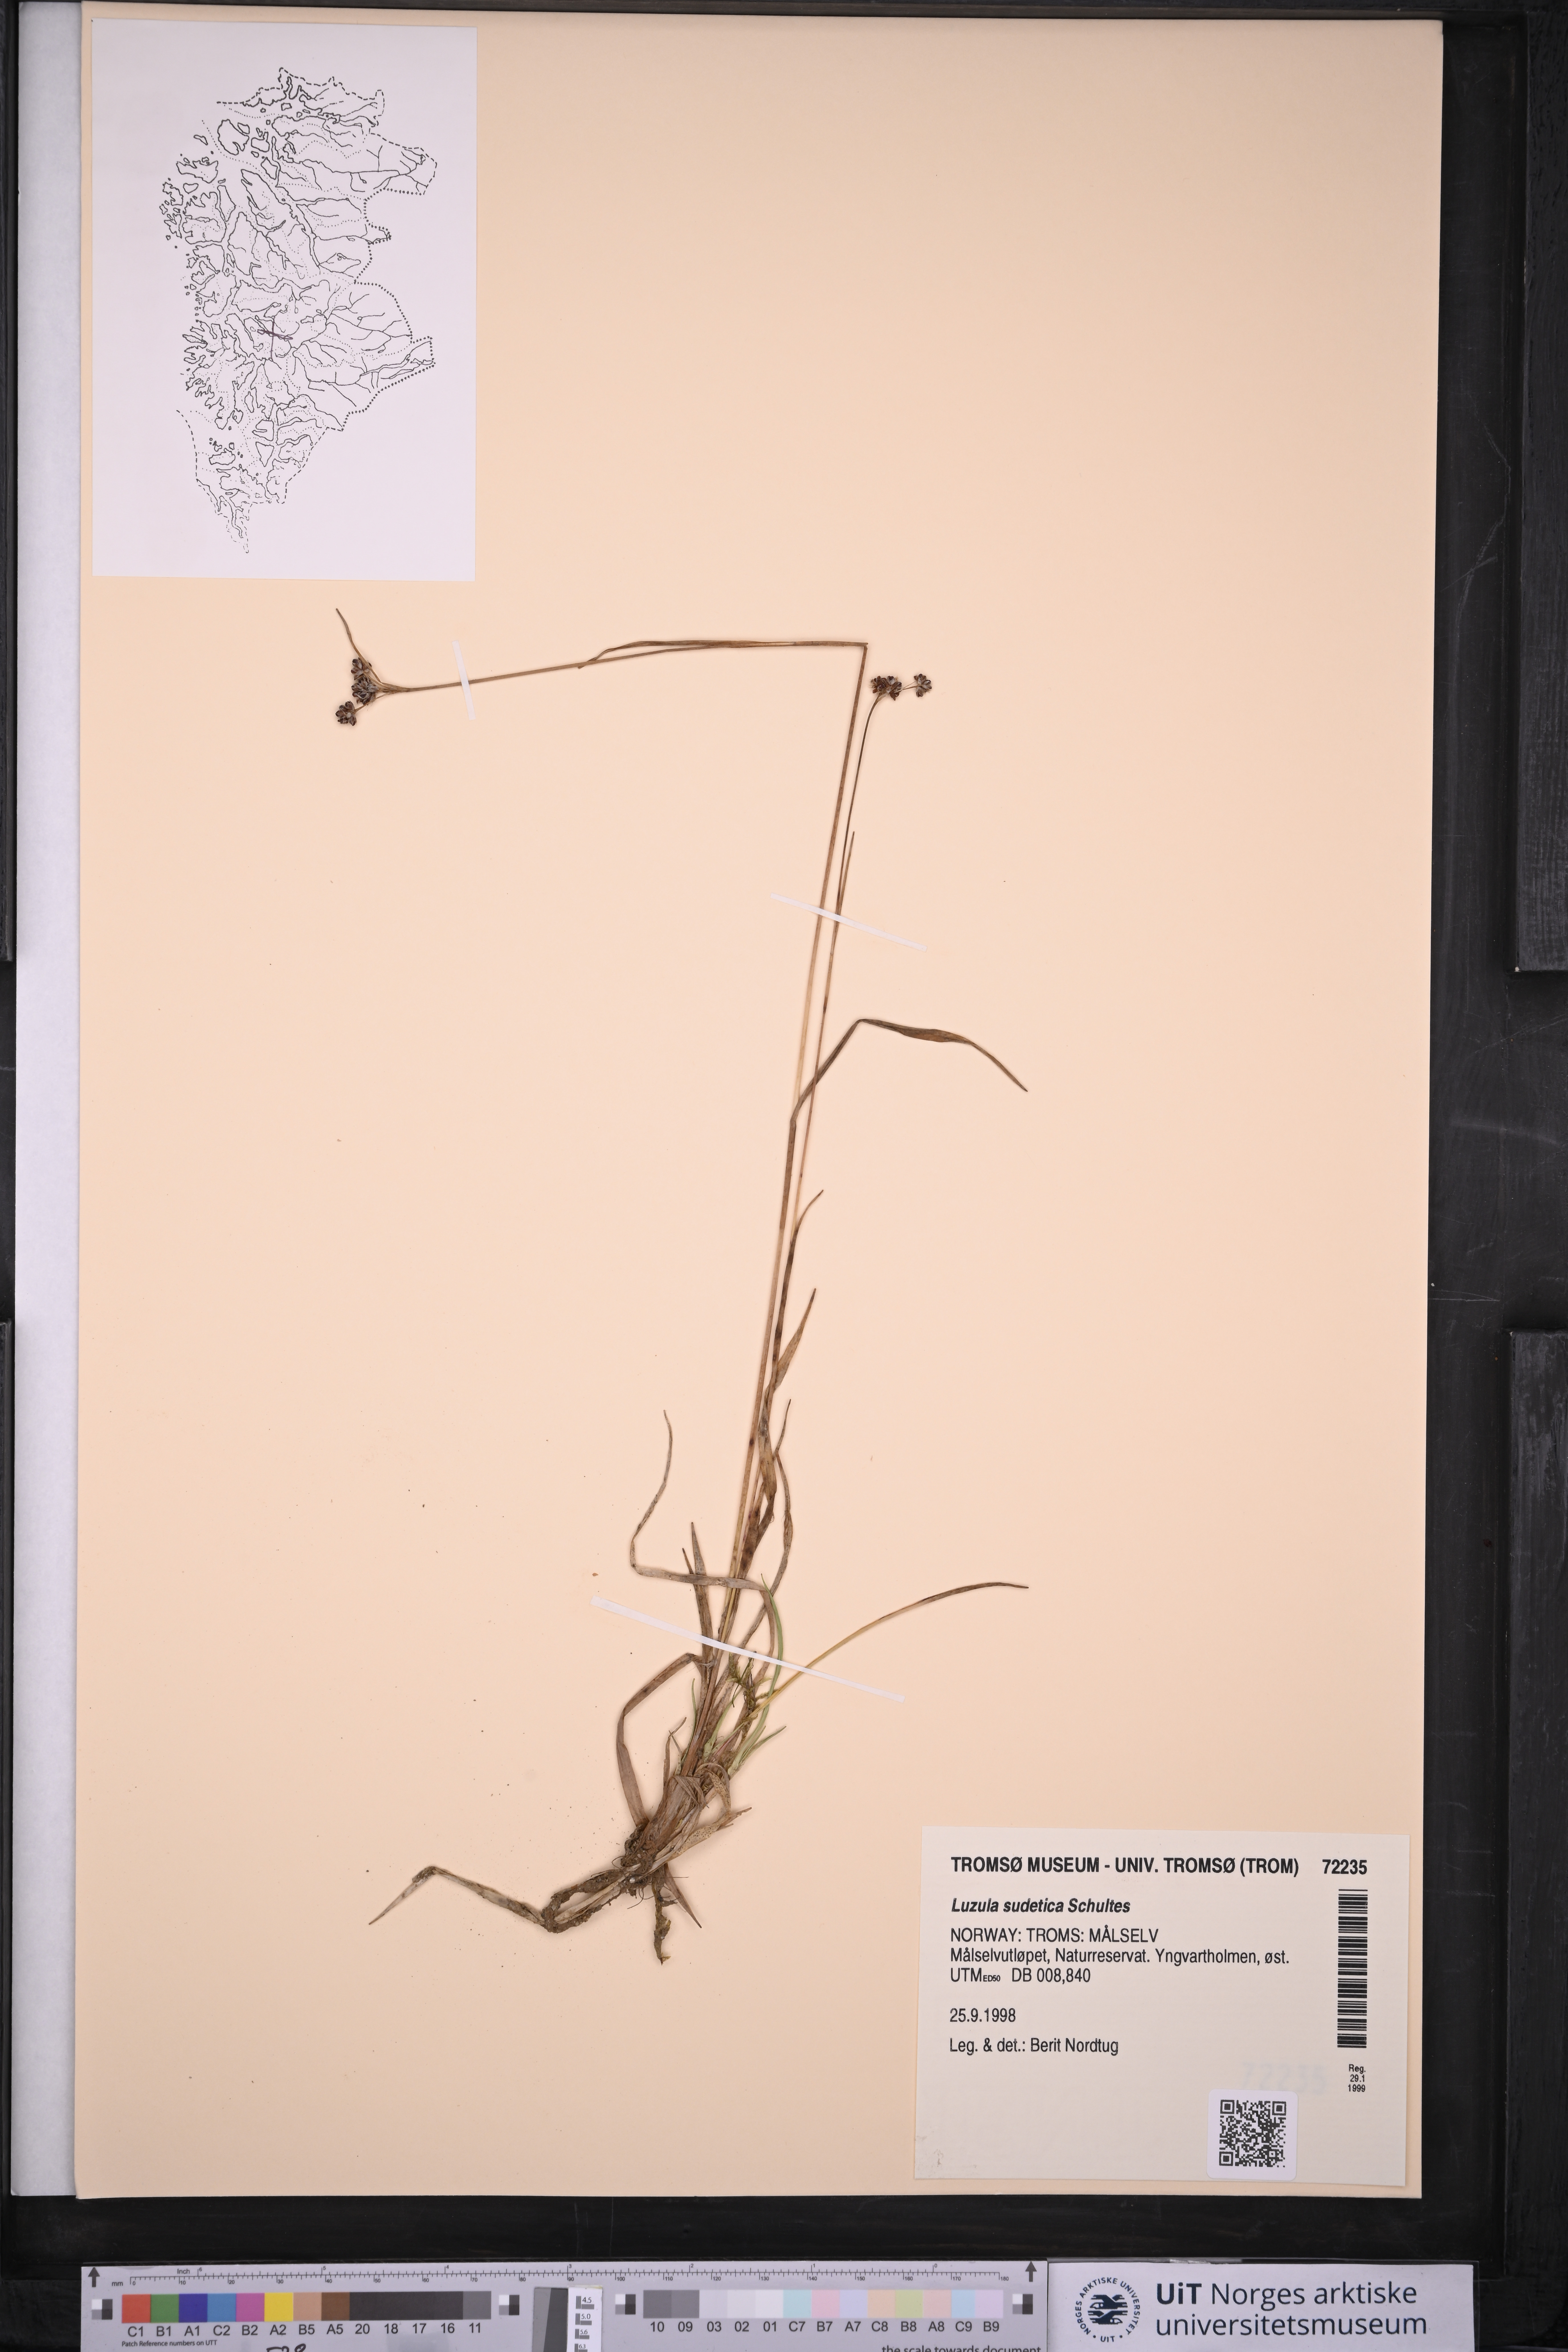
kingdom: Plantae
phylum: Tracheophyta
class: Liliopsida
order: Poales
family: Juncaceae
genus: Luzula
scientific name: Luzula sudetica
